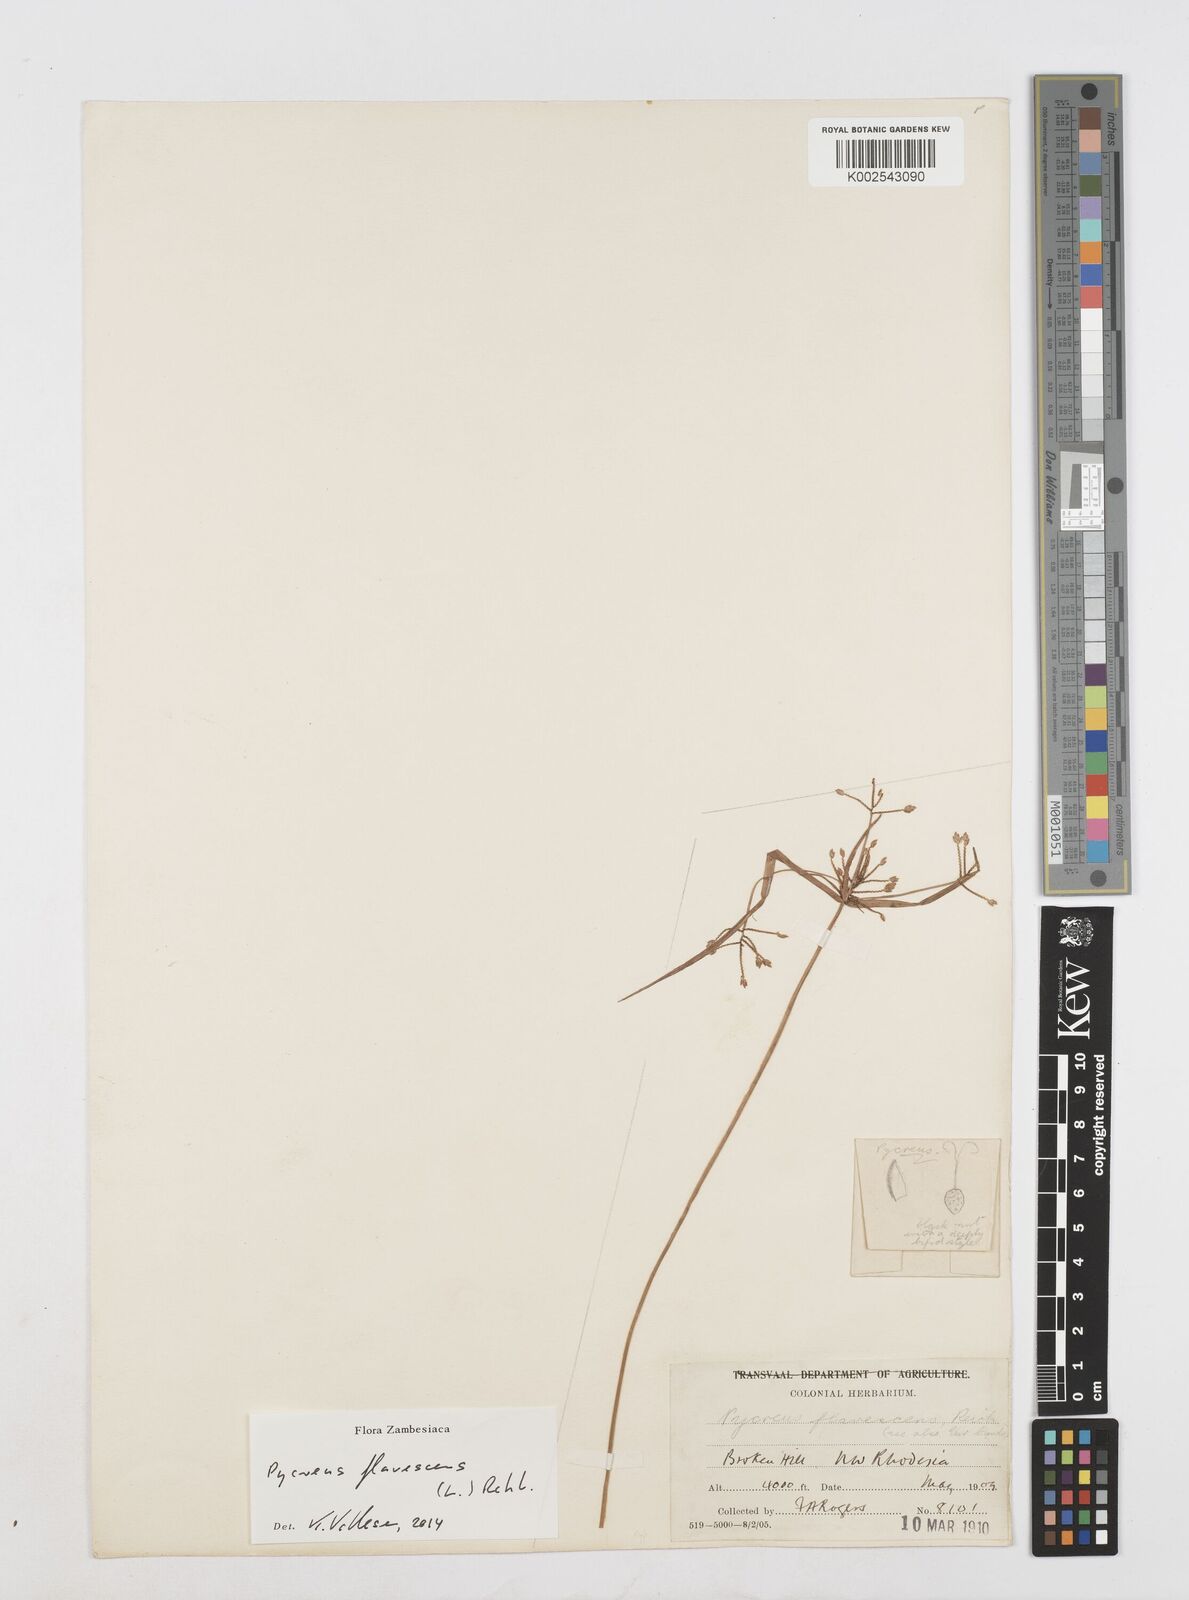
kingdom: Plantae
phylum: Tracheophyta
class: Liliopsida
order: Poales
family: Cyperaceae
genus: Cyperus
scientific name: Cyperus flavescens
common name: Yellow galingale
